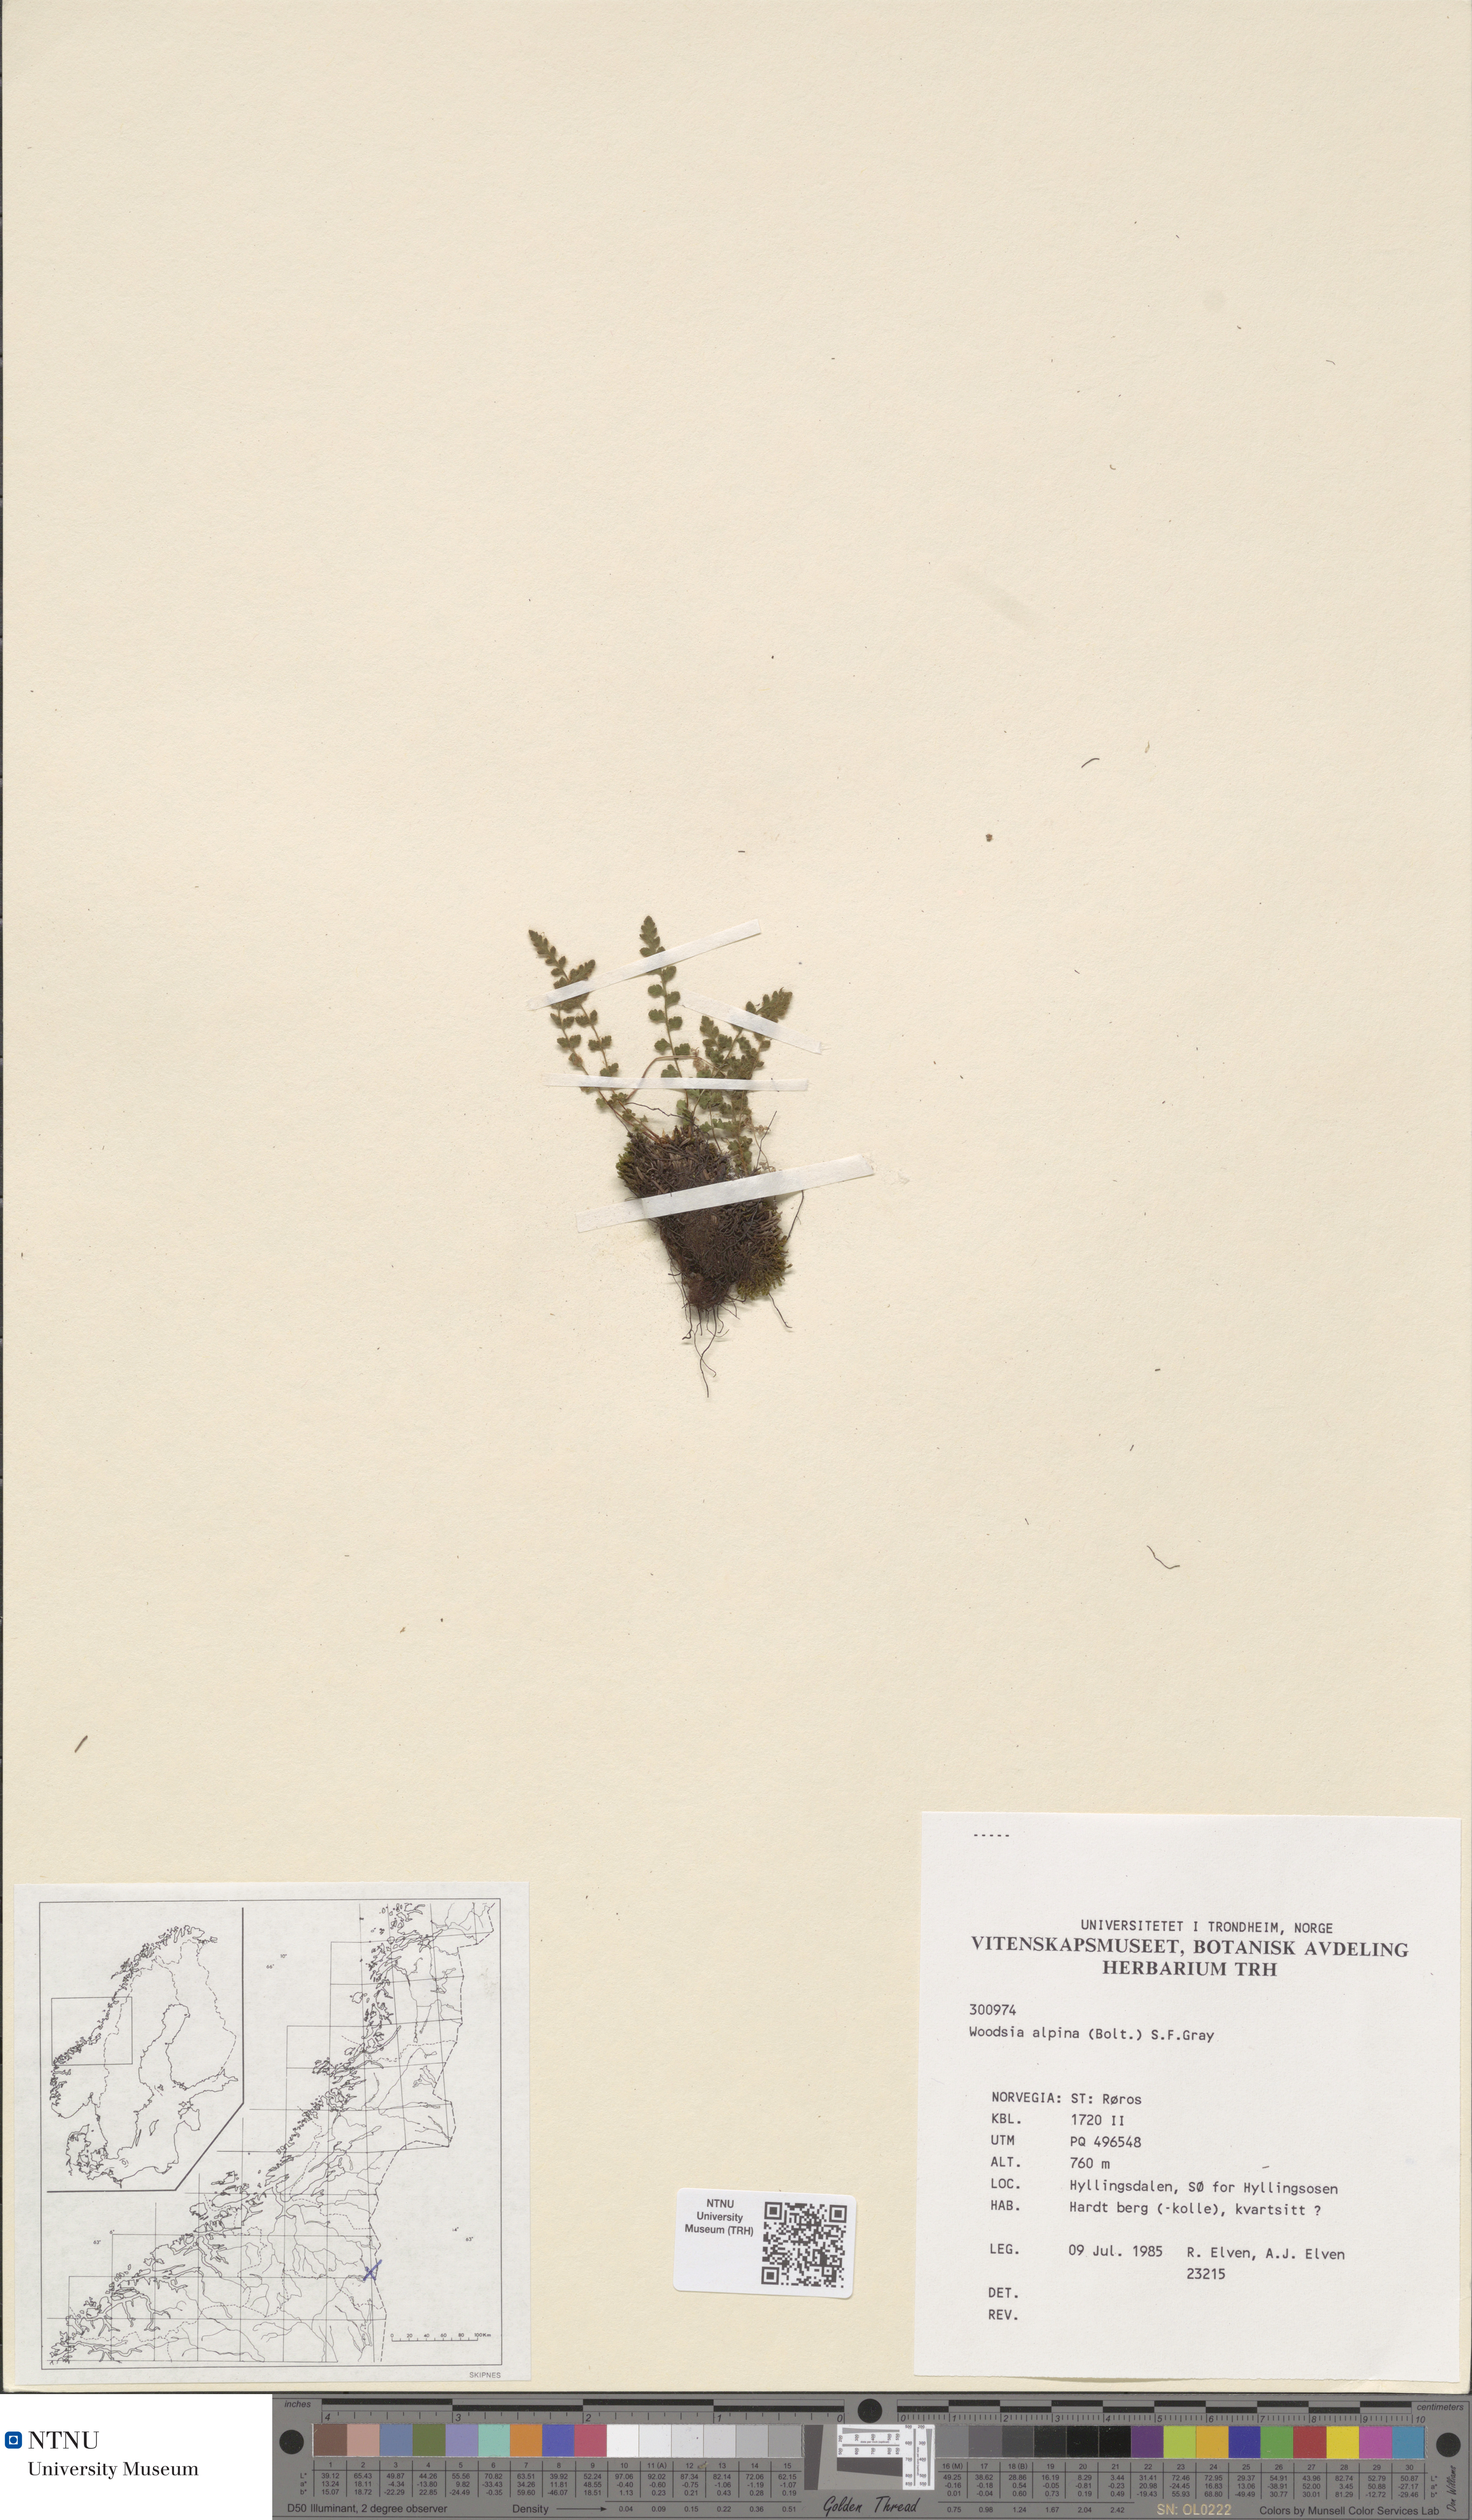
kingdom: Plantae
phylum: Tracheophyta
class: Polypodiopsida
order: Polypodiales
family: Woodsiaceae
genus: Woodsia
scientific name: Woodsia alpina
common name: Alpine woodsia
